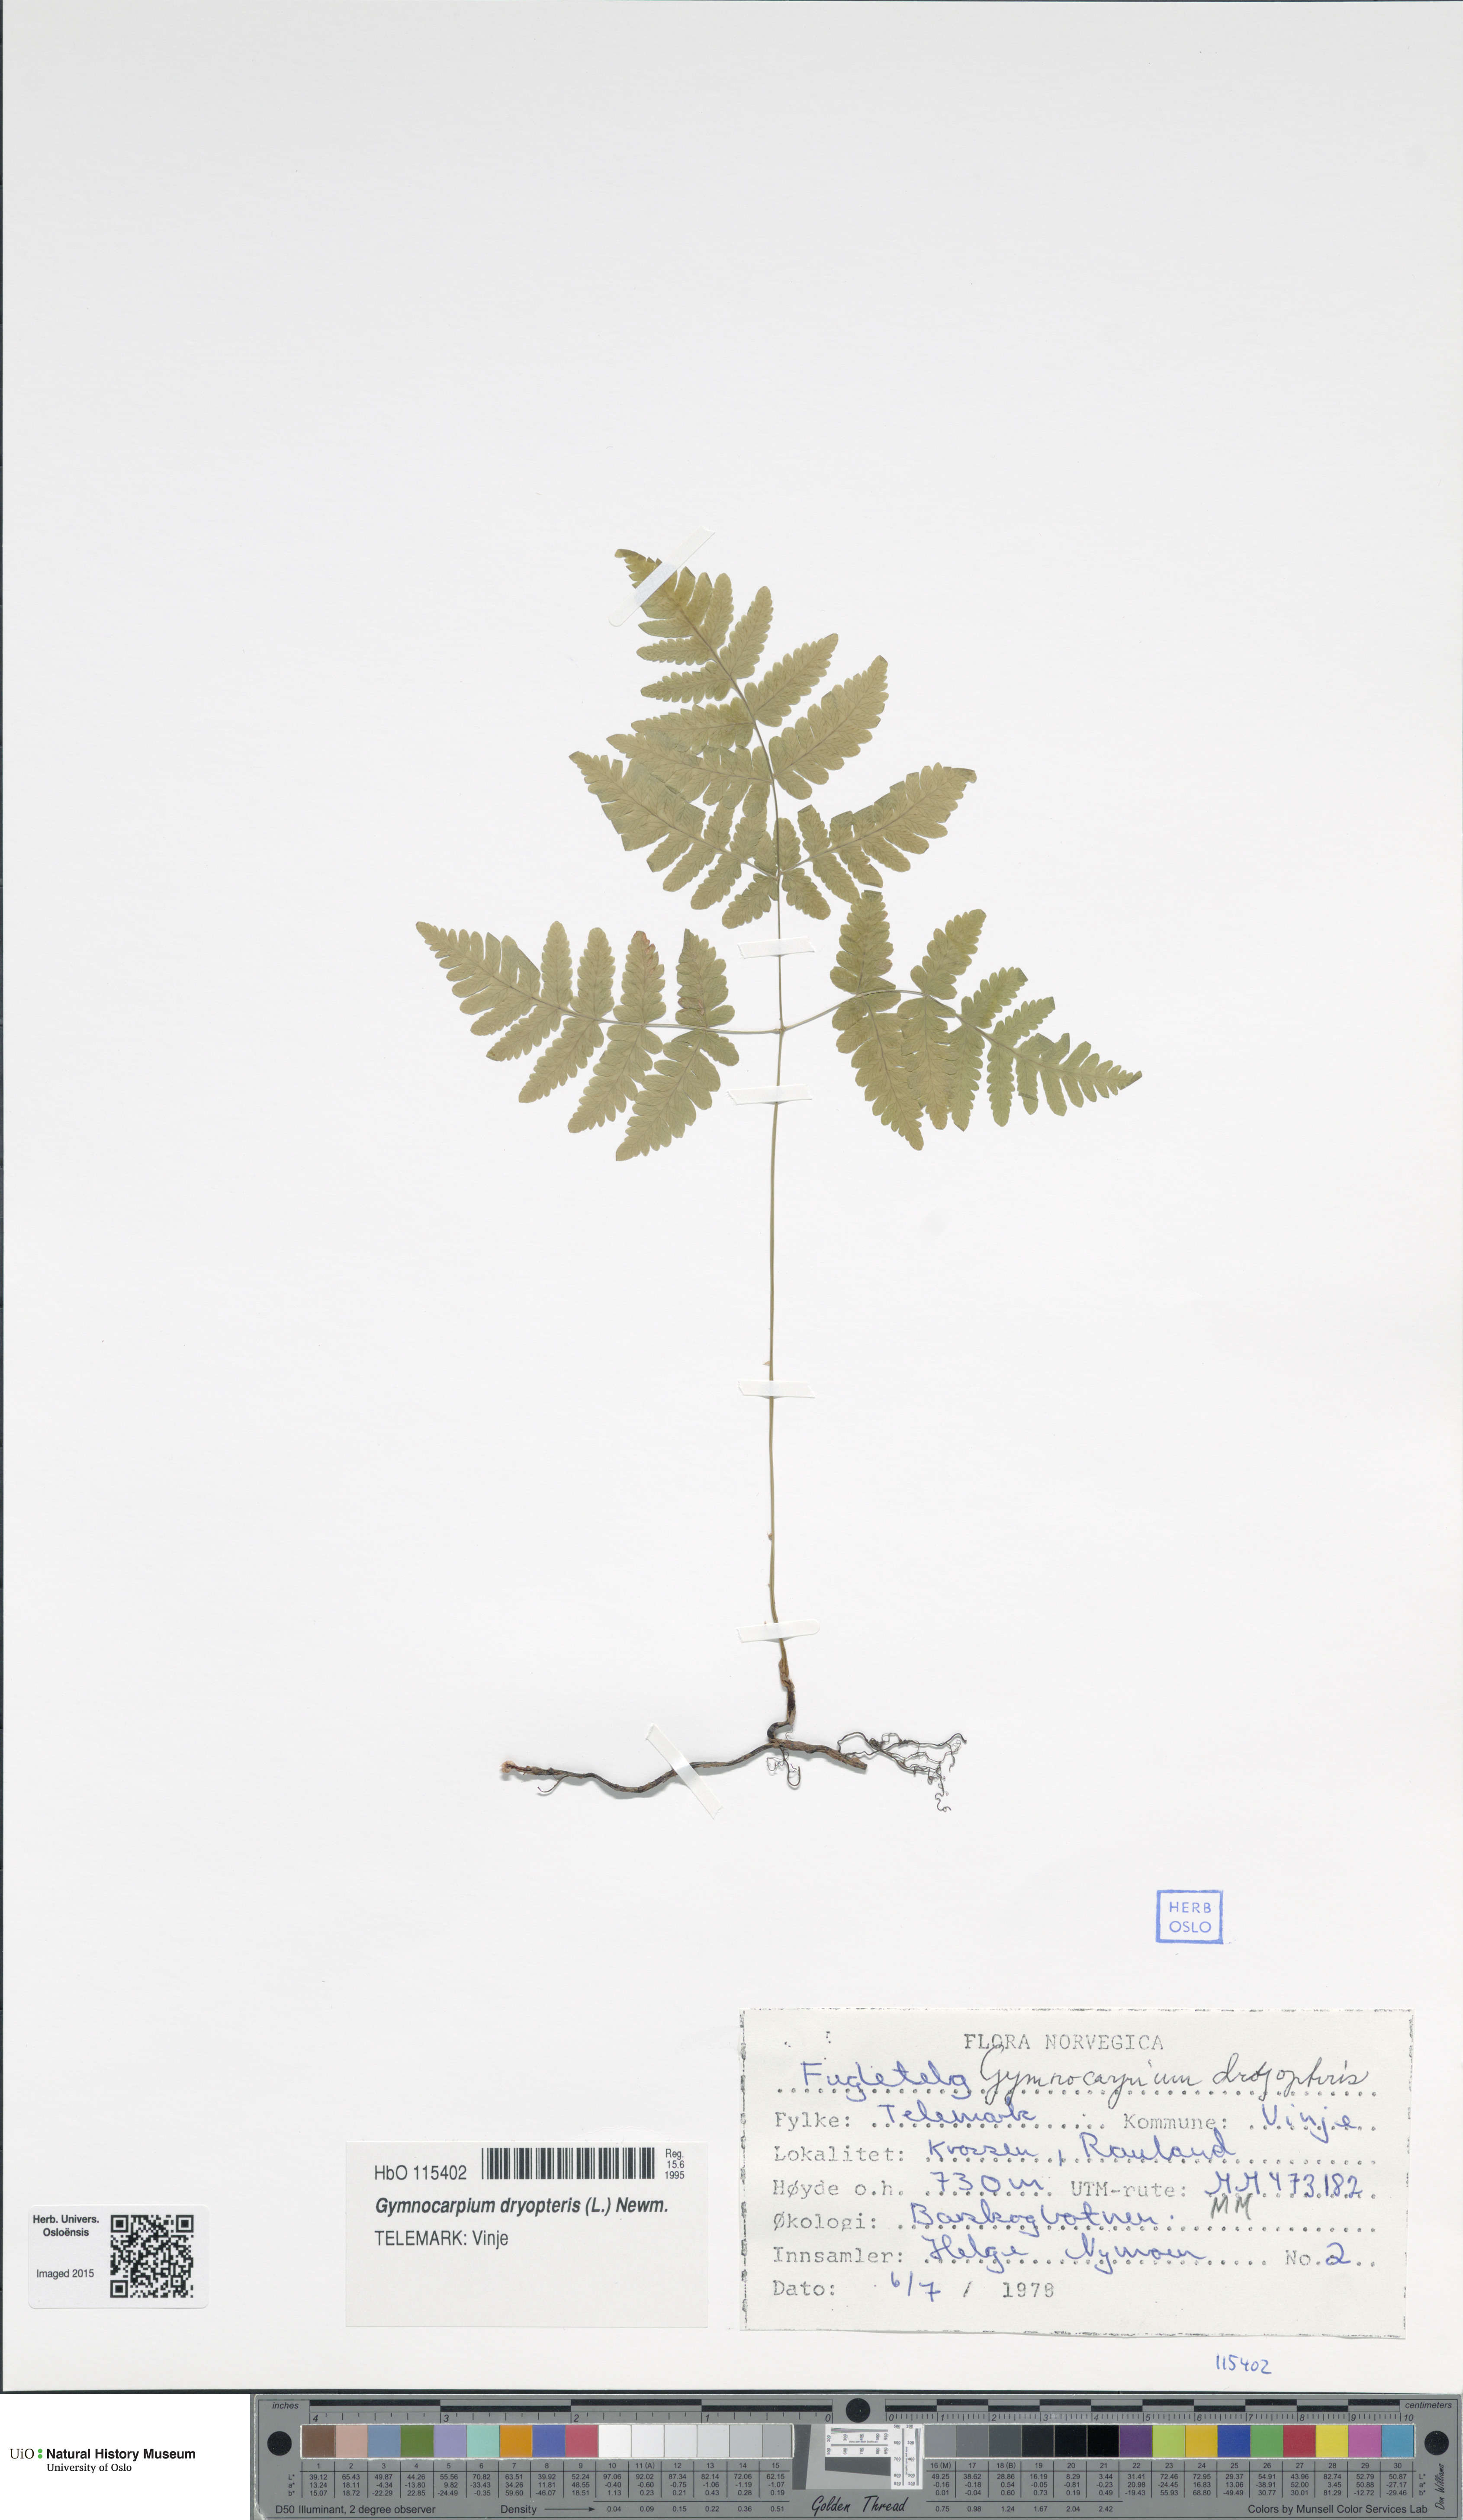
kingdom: Plantae
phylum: Tracheophyta
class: Polypodiopsida
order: Polypodiales
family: Cystopteridaceae
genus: Gymnocarpium
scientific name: Gymnocarpium dryopteris
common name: Oak fern
